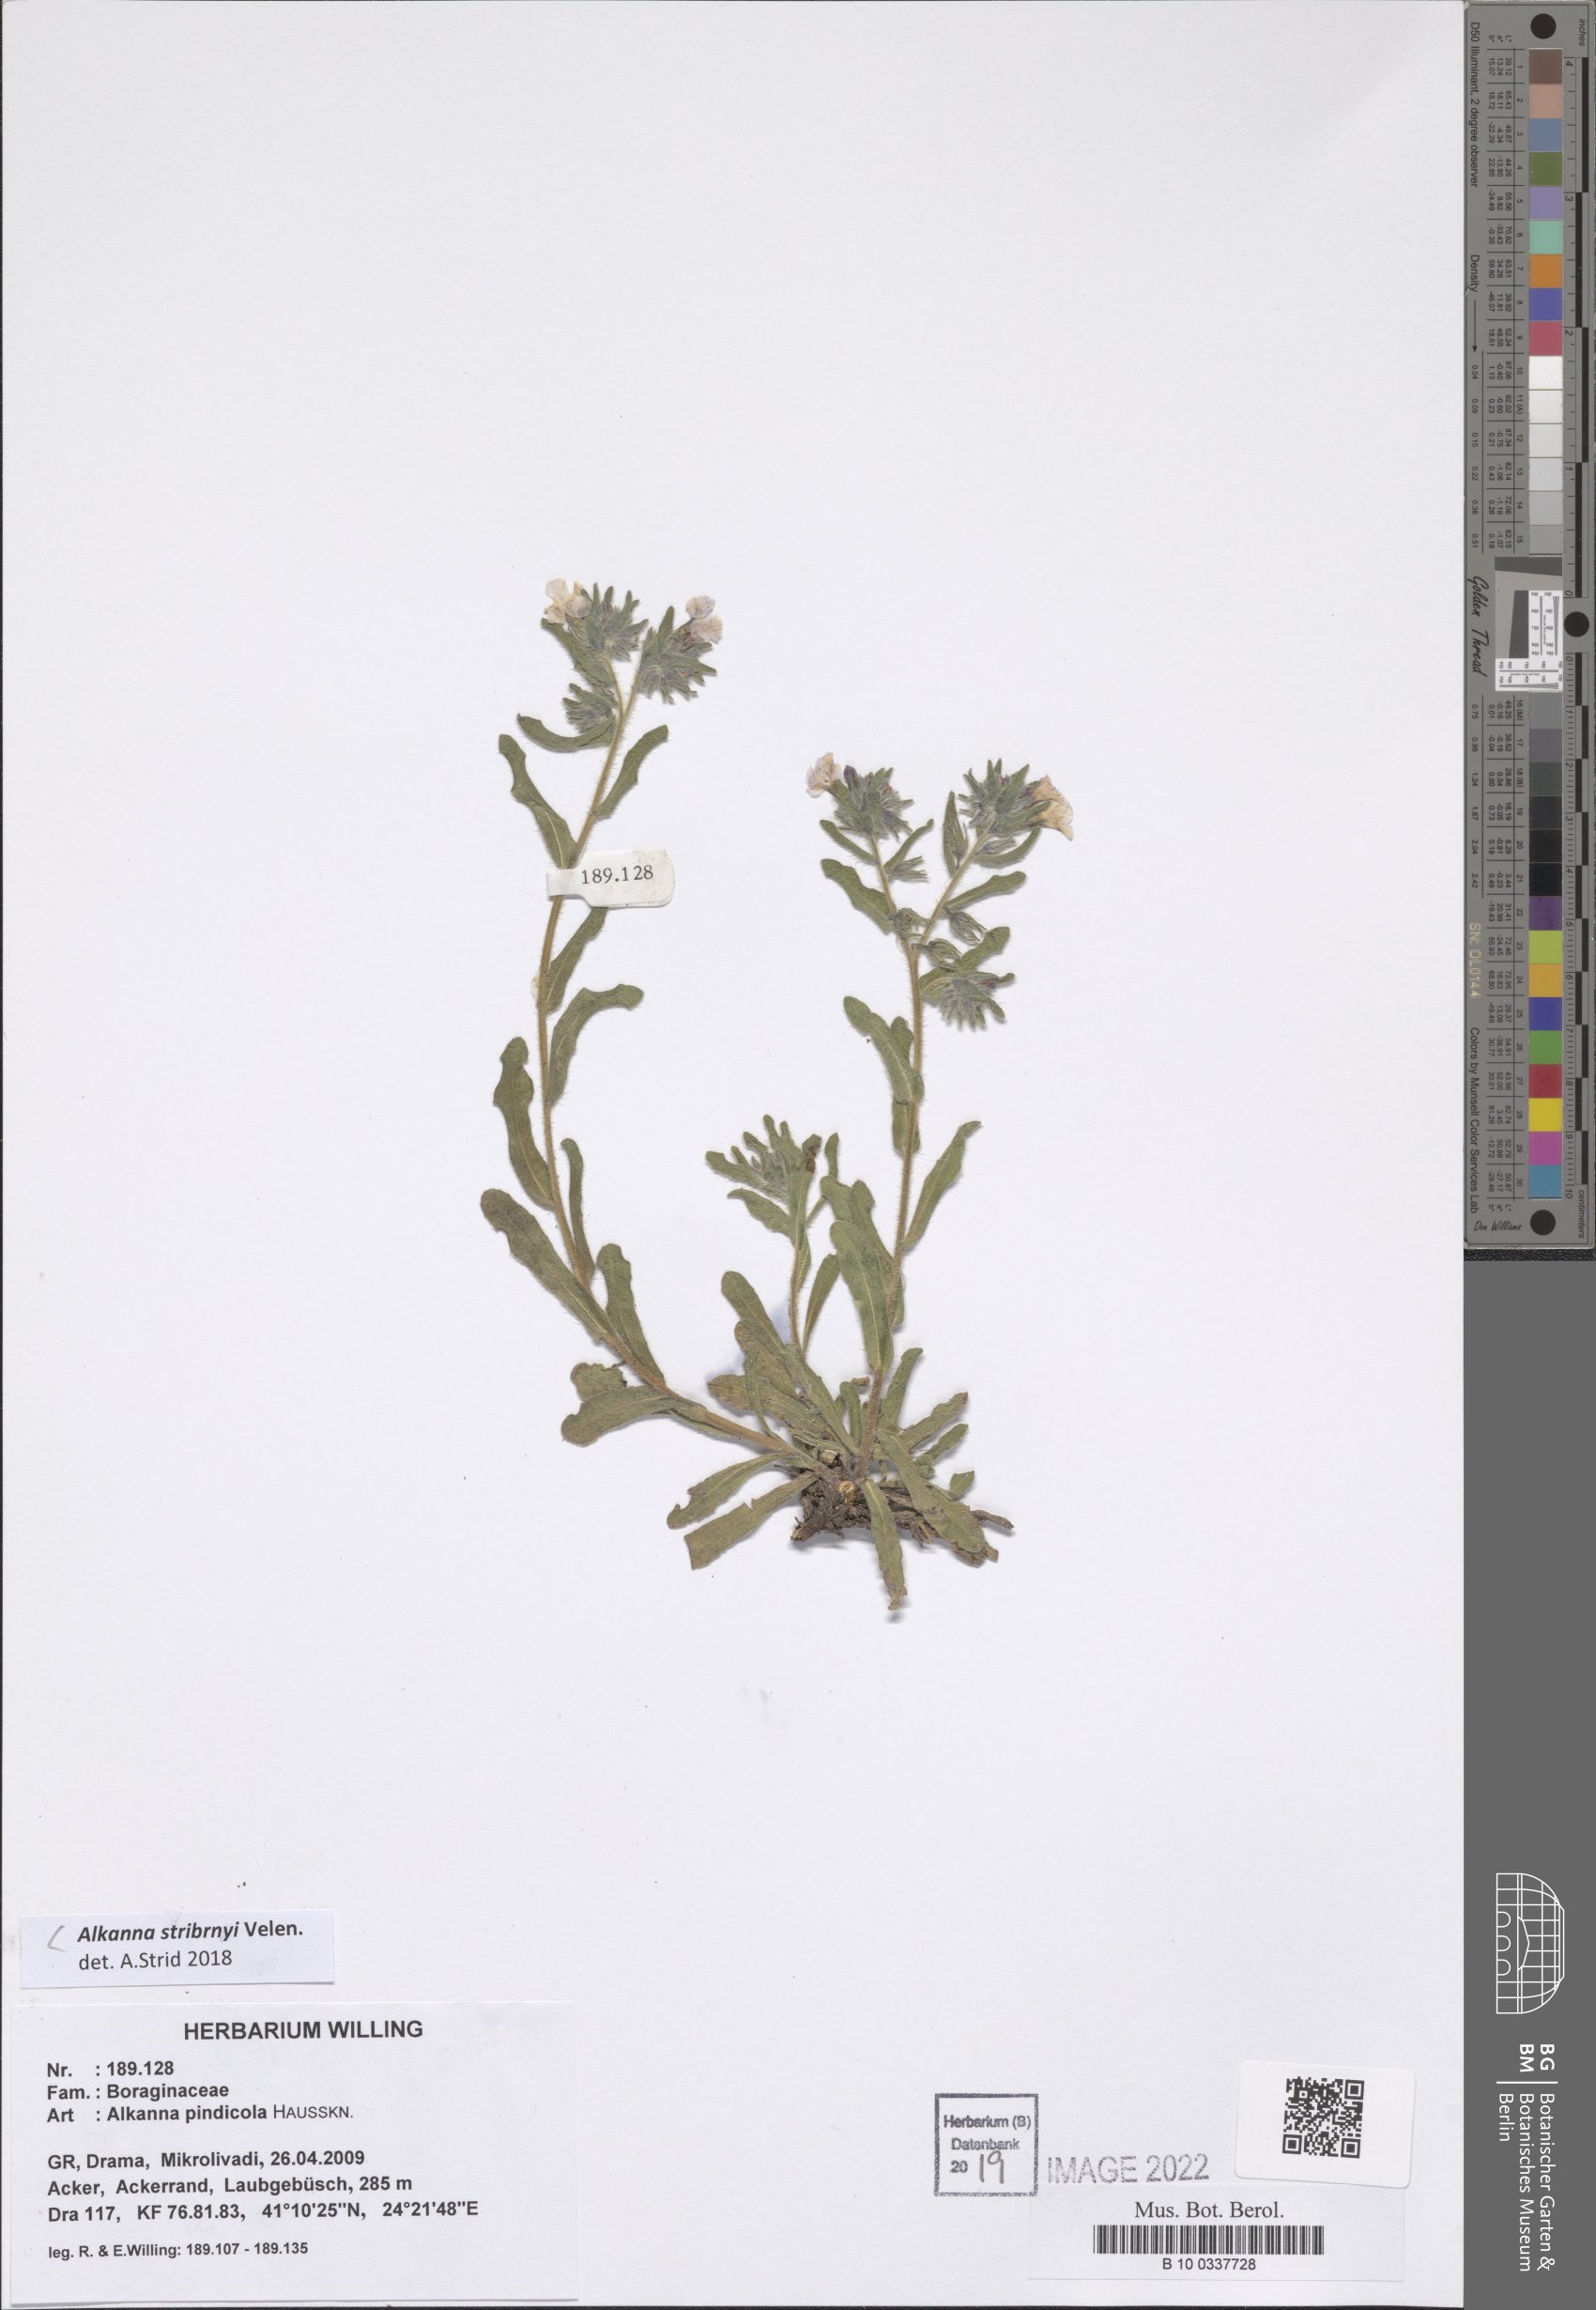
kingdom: Plantae
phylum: Tracheophyta
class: Magnoliopsida
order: Boraginales
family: Boraginaceae
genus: Alkanna
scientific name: Alkanna stribrnyi
